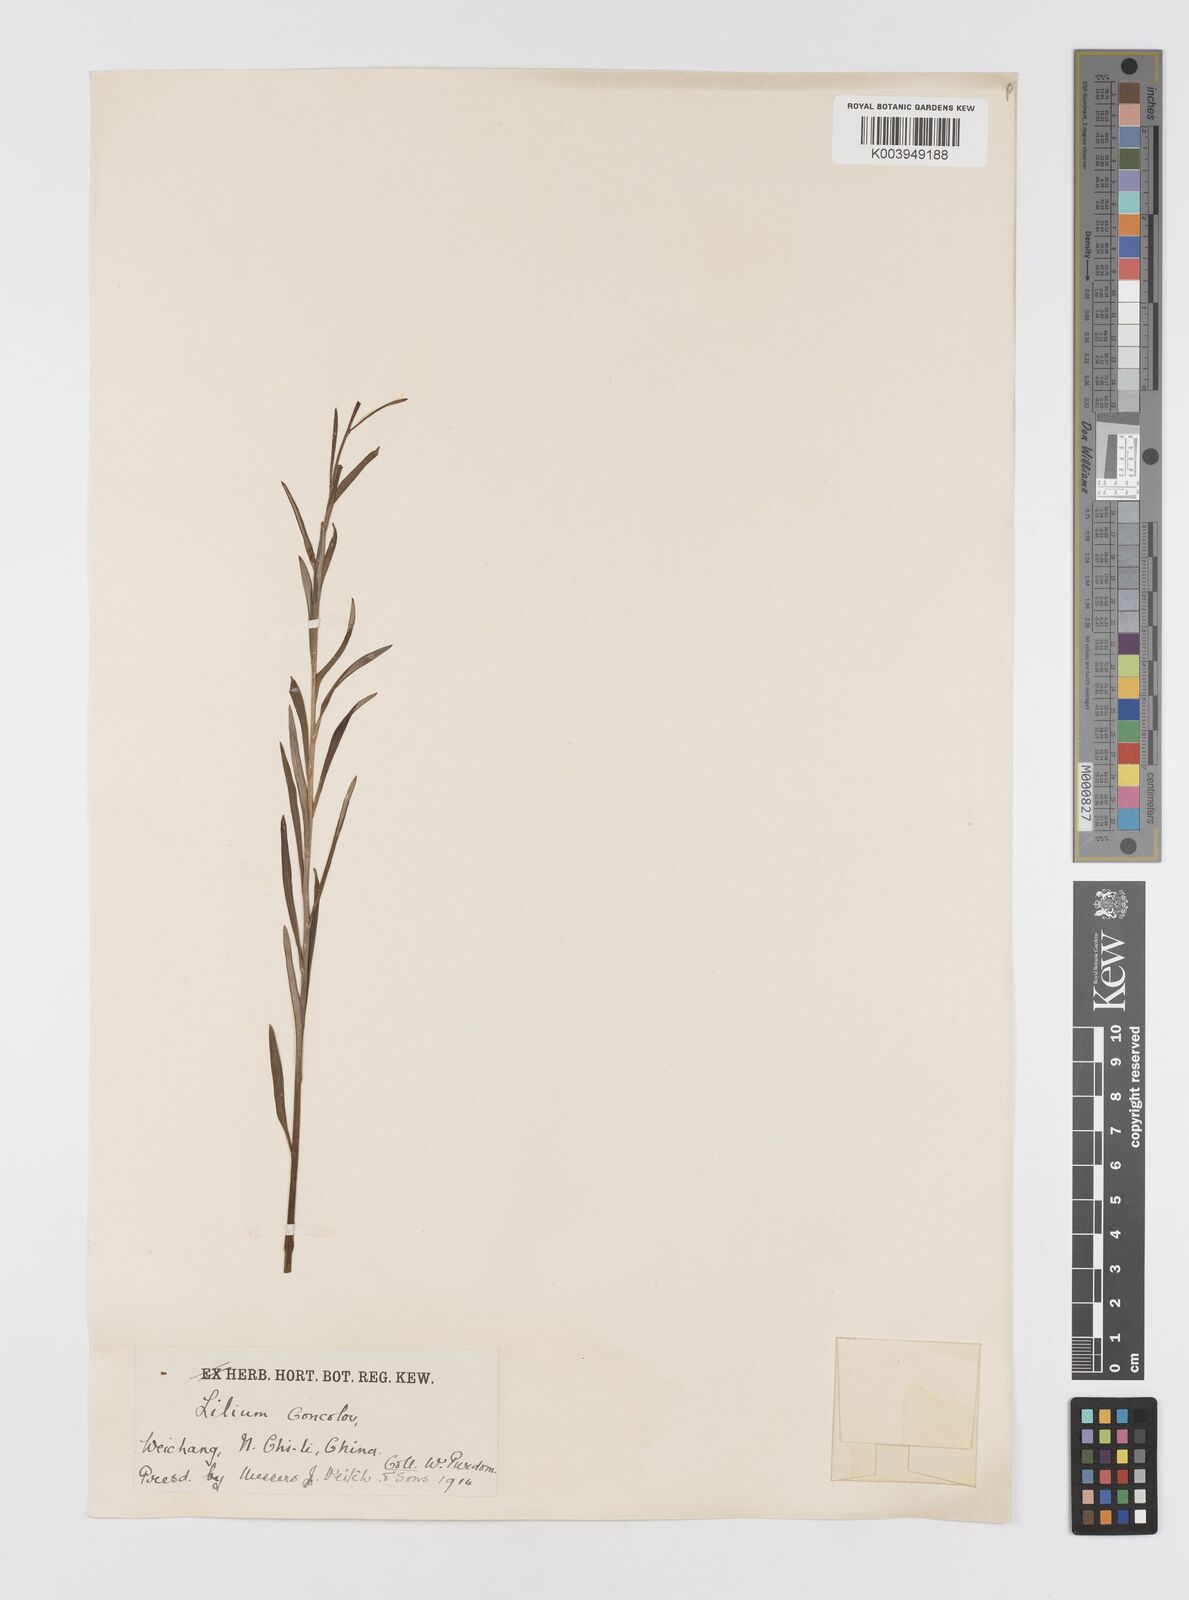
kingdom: Plantae
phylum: Tracheophyta
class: Liliopsida
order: Liliales
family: Liliaceae
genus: Lilium
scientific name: Lilium concolor
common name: Morning-star lily
